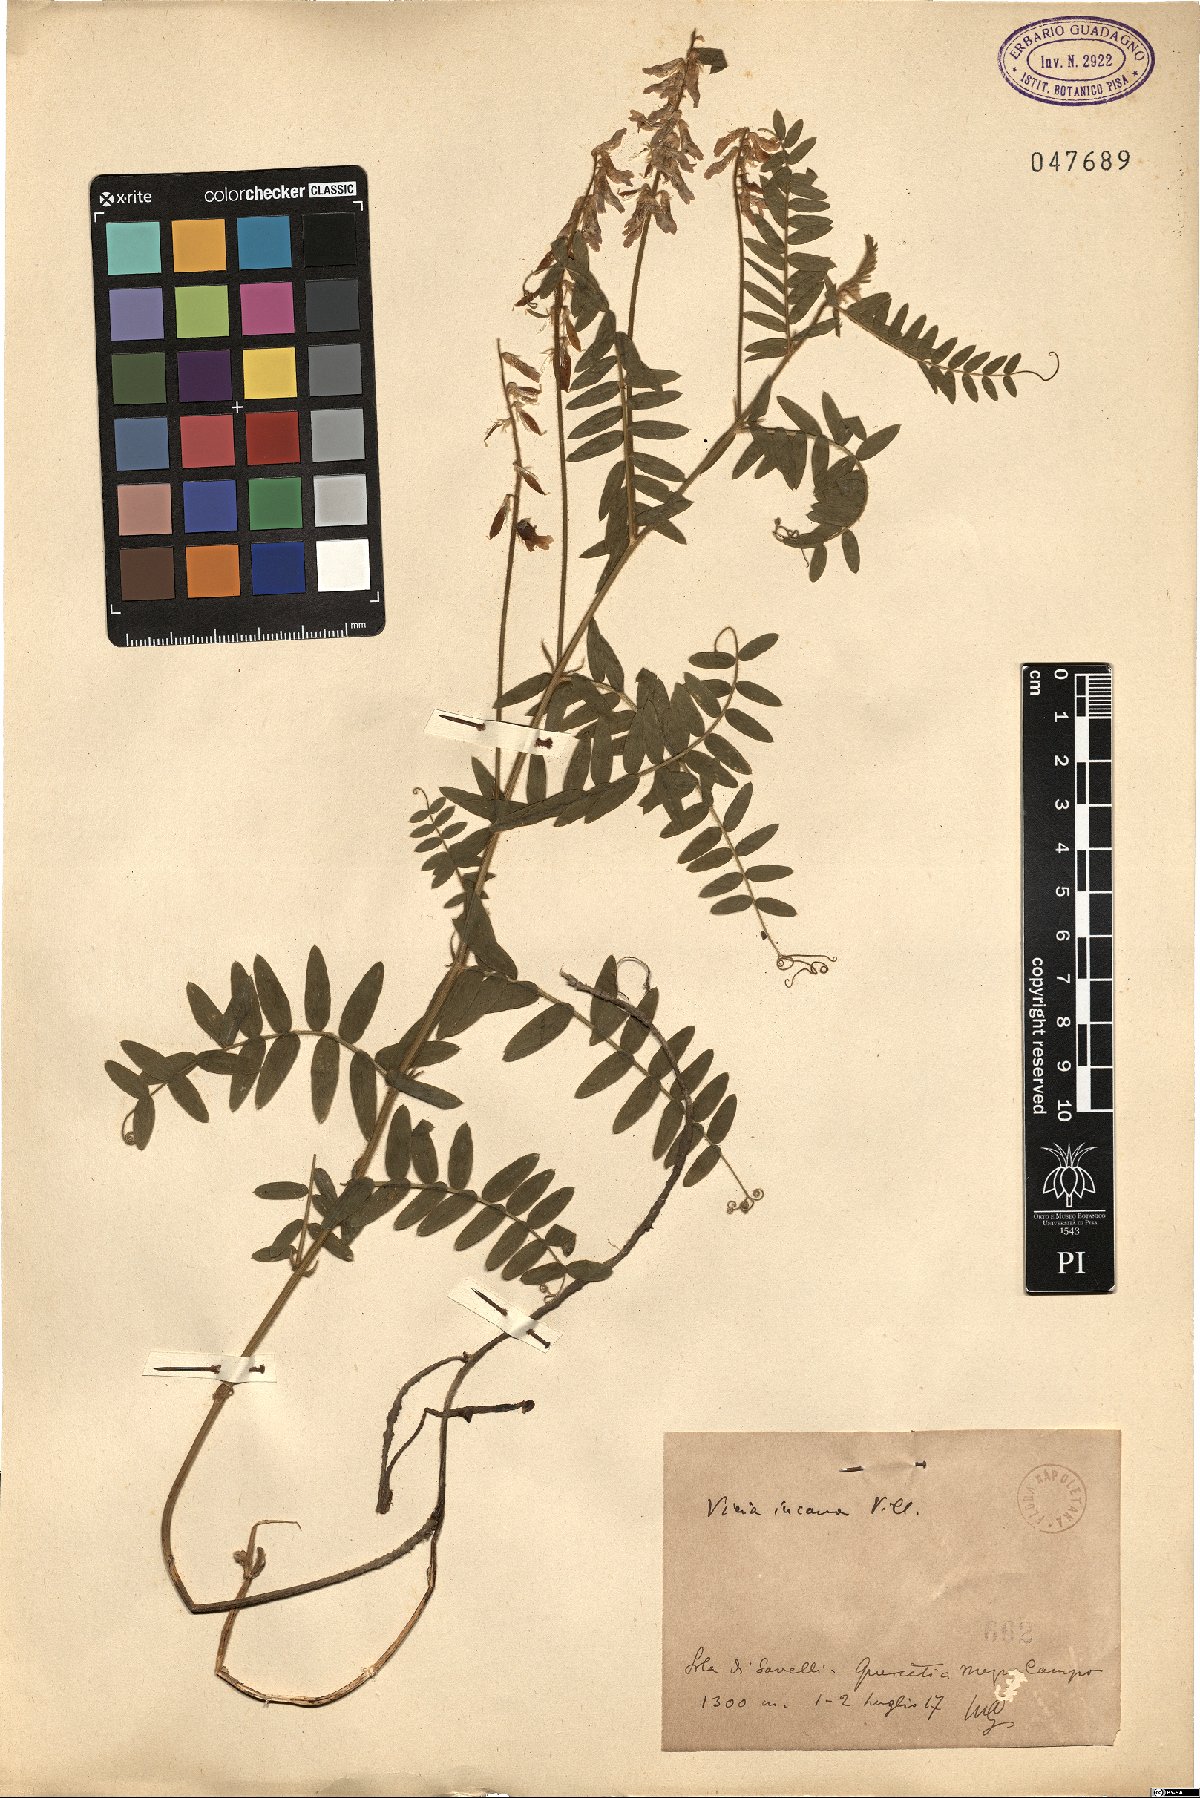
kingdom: Plantae
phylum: Tracheophyta
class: Magnoliopsida
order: Fabales
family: Fabaceae
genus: Vicia
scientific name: Vicia incana
